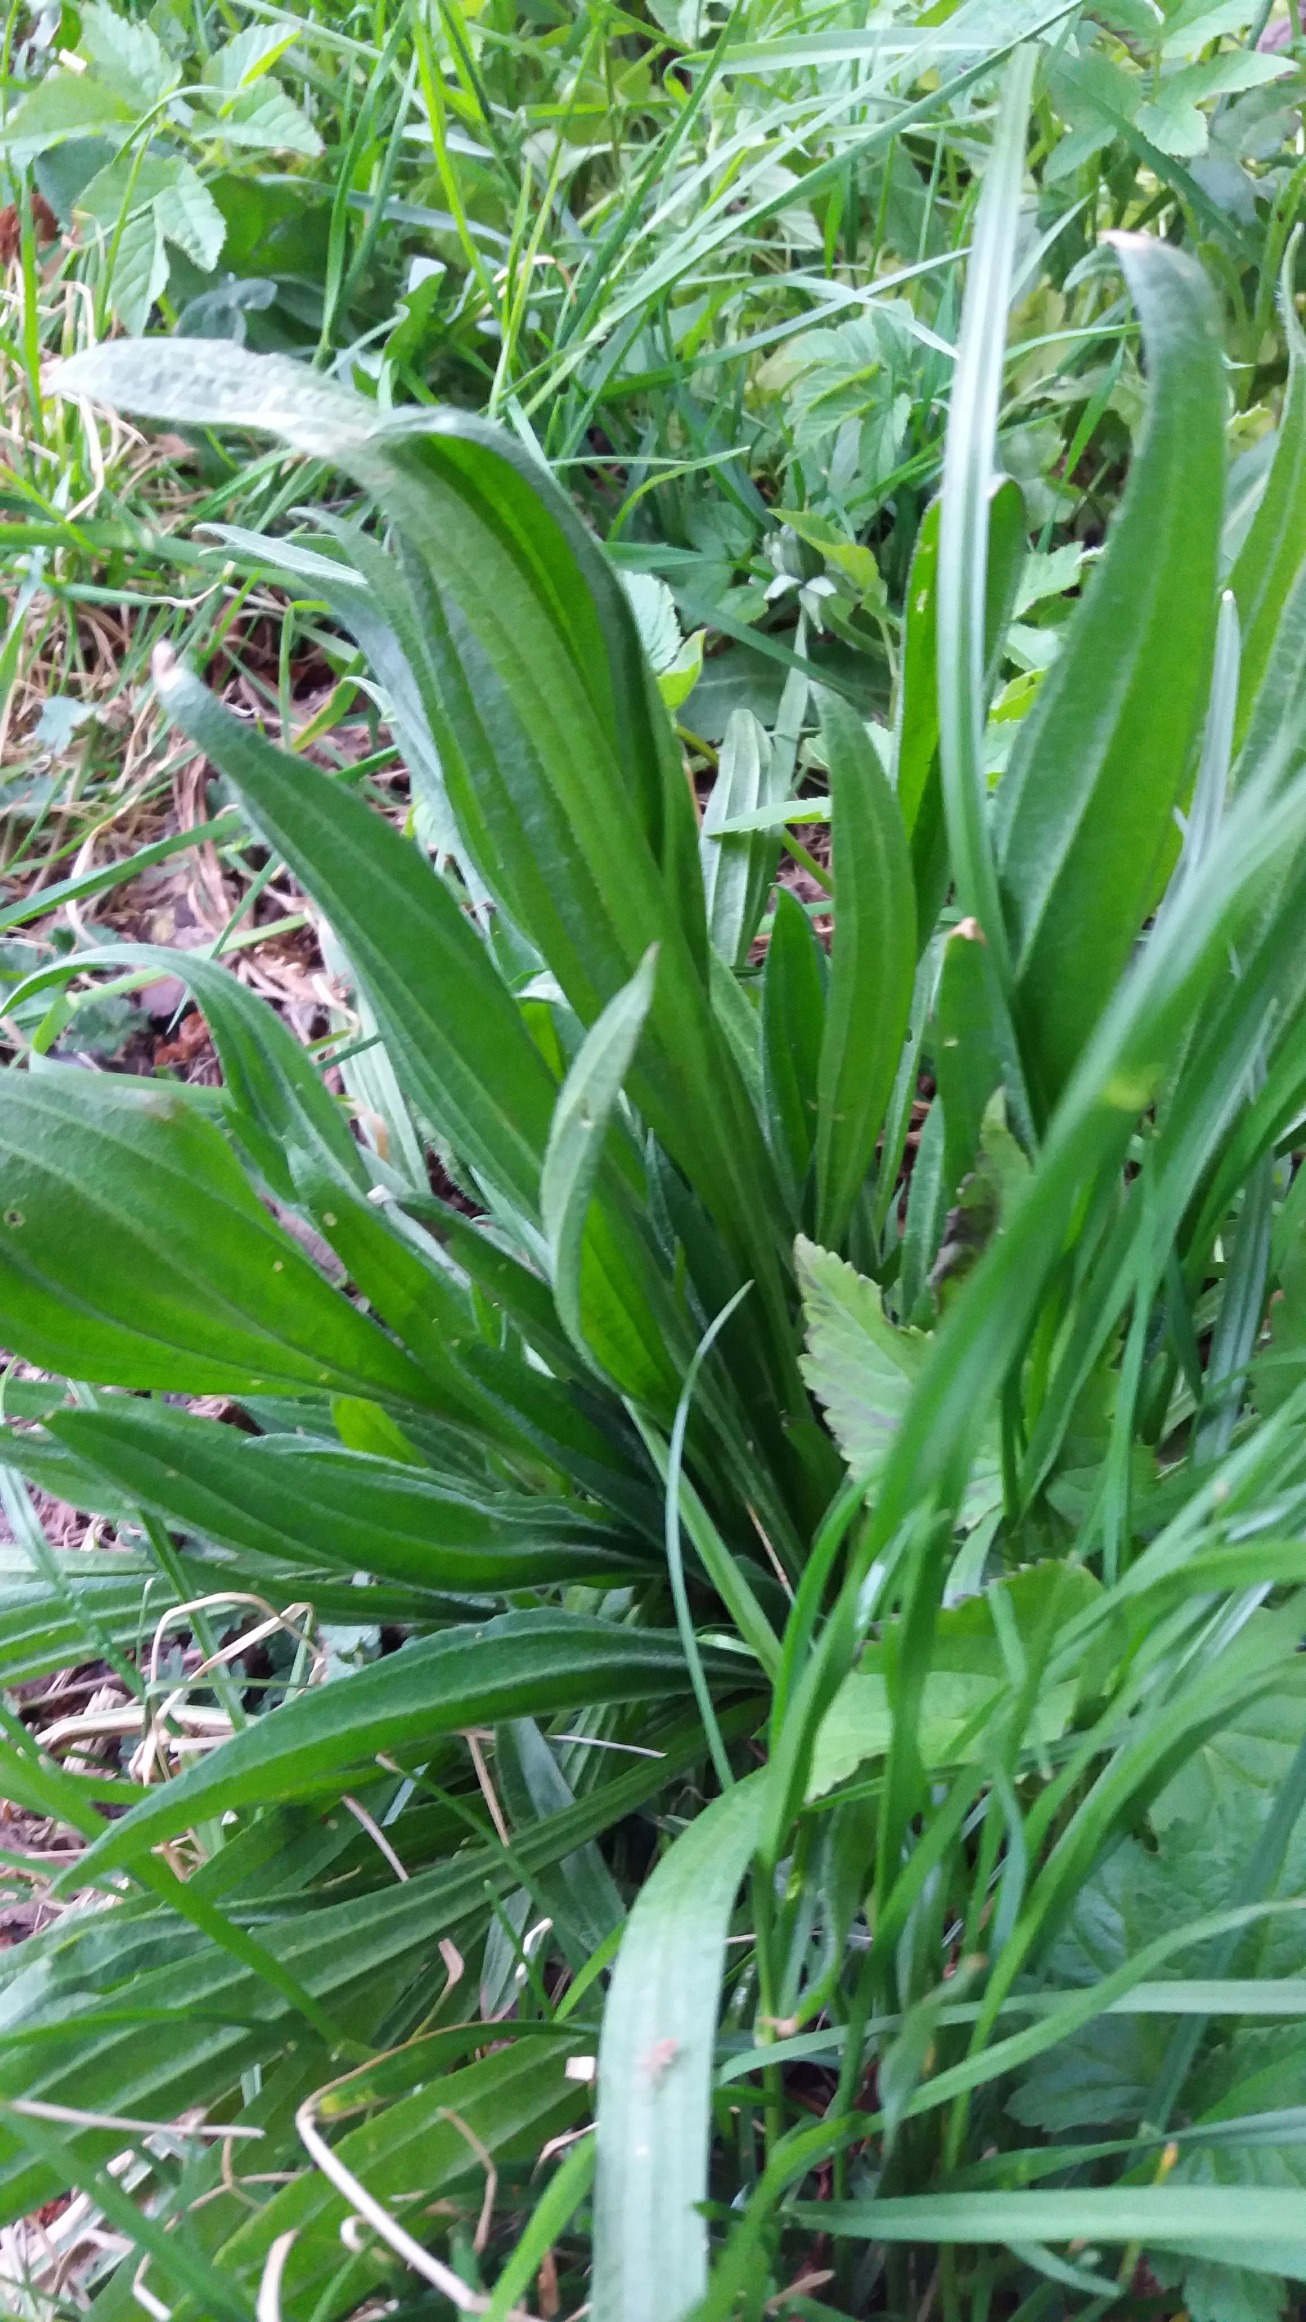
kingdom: Plantae
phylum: Tracheophyta
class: Magnoliopsida
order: Lamiales
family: Plantaginaceae
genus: Plantago
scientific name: Plantago lanceolata
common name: Lancet-vejbred
